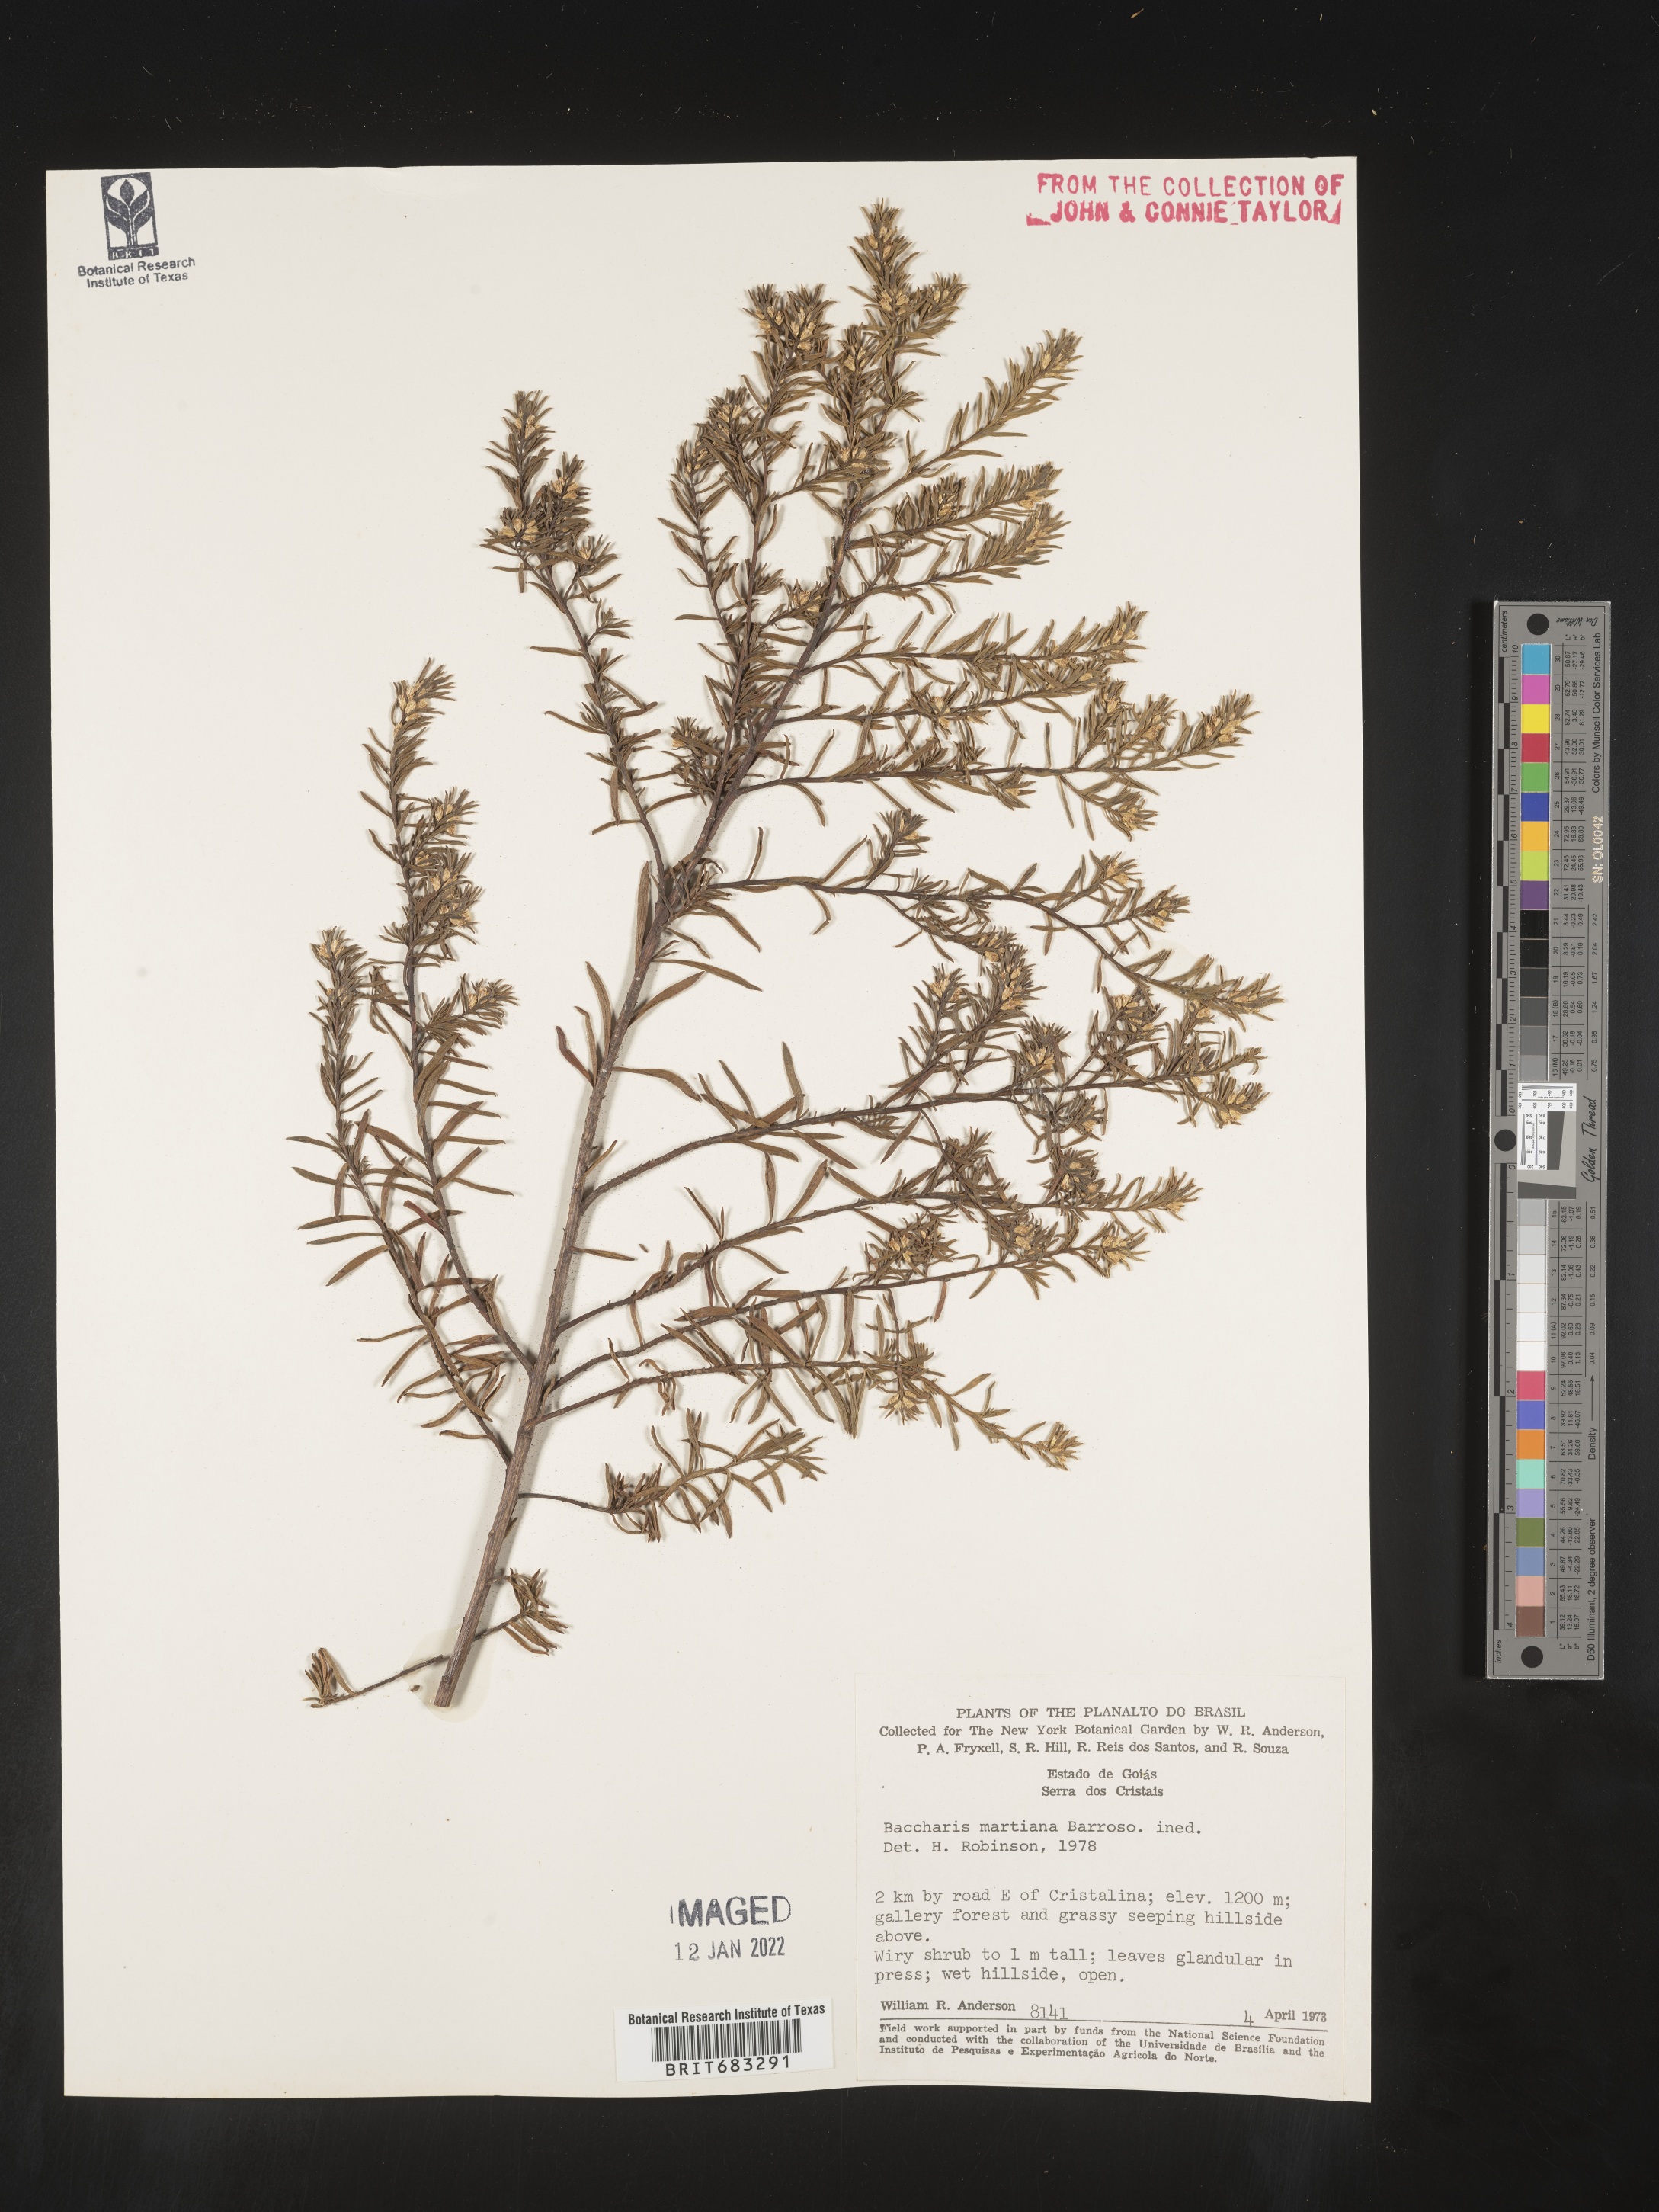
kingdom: Plantae
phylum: Tracheophyta
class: Magnoliopsida
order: Asterales
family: Asteraceae
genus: Baccharis
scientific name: Baccharis
